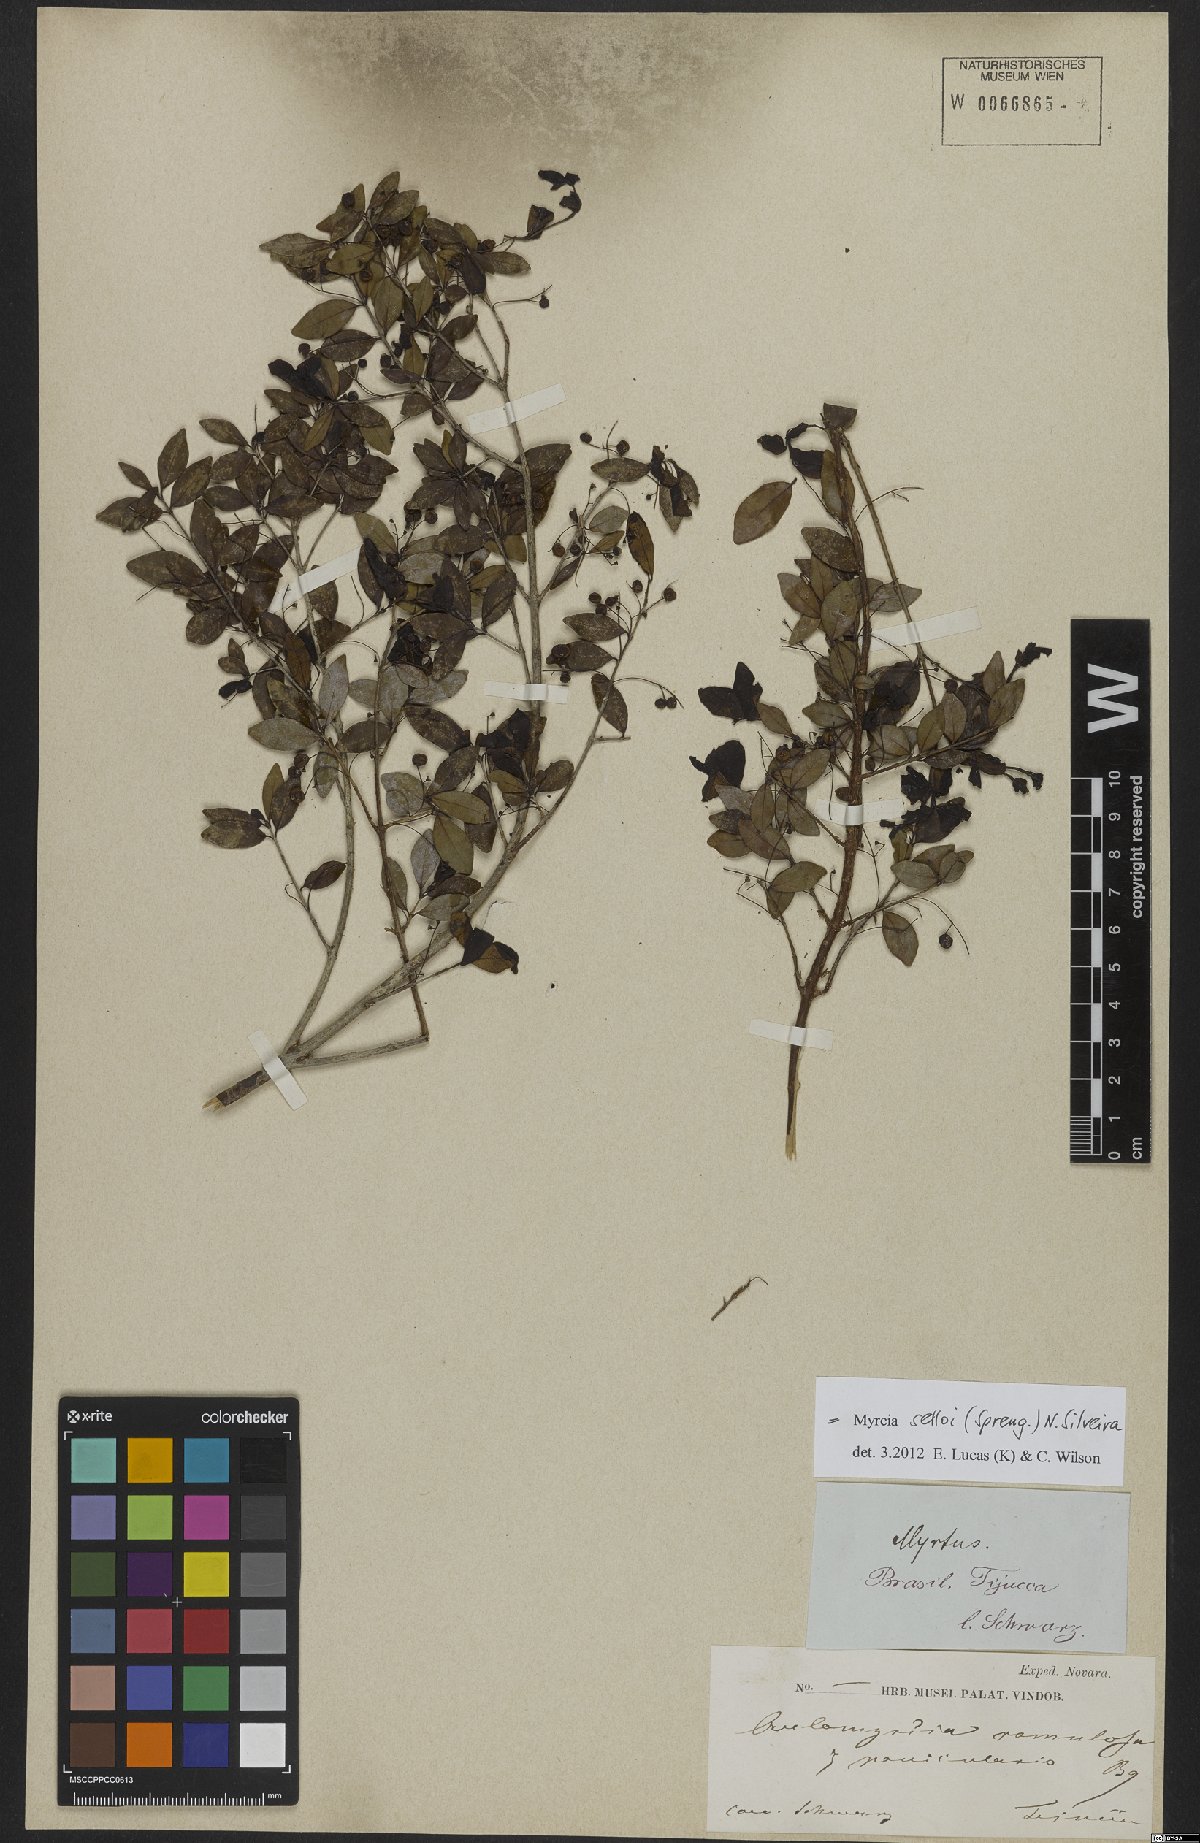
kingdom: Plantae
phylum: Tracheophyta
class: Magnoliopsida
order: Myrtales
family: Myrtaceae
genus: Myrcia
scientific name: Myrcia selloi
